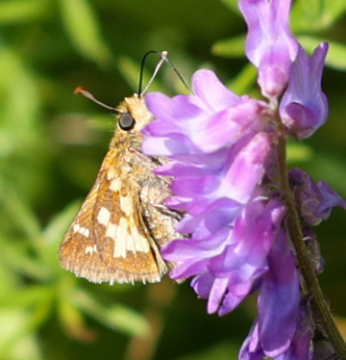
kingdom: Animalia
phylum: Arthropoda
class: Insecta
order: Lepidoptera
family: Hesperiidae
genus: Polites
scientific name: Polites coras
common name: Peck's Skipper
